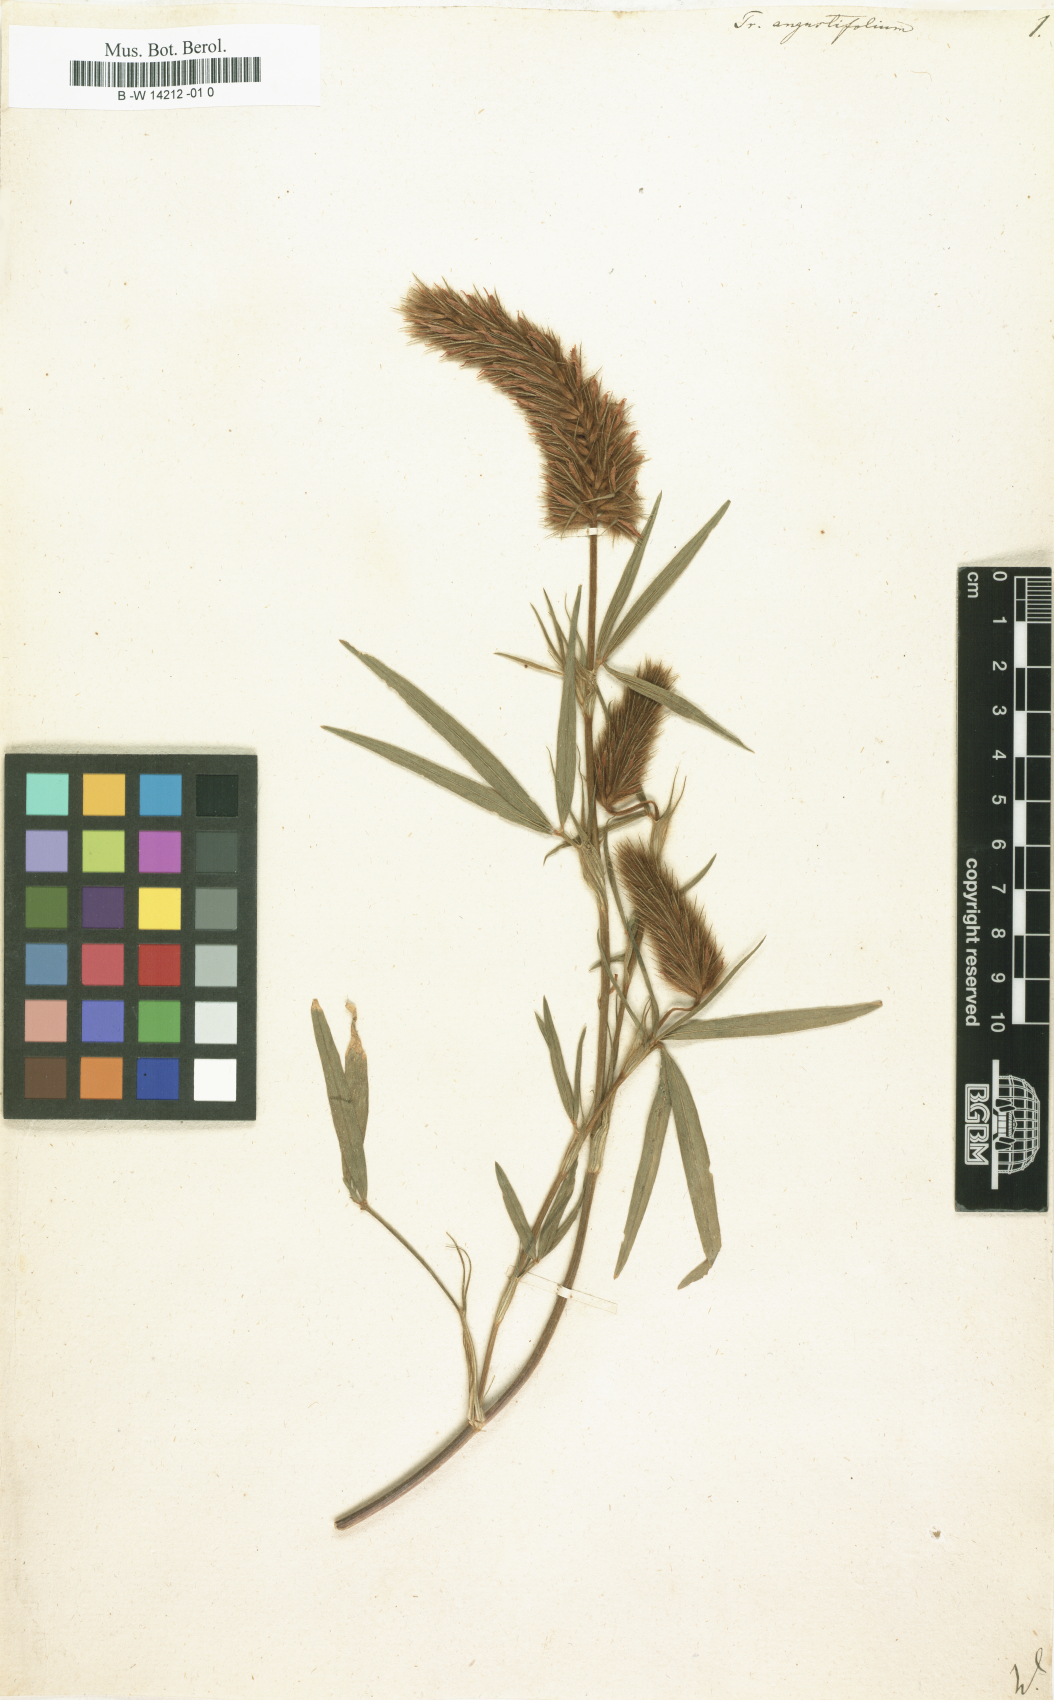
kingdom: Plantae
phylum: Tracheophyta
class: Magnoliopsida
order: Fabales
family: Fabaceae
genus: Trifolium
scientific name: Trifolium angustifolium
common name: Narrow clover
